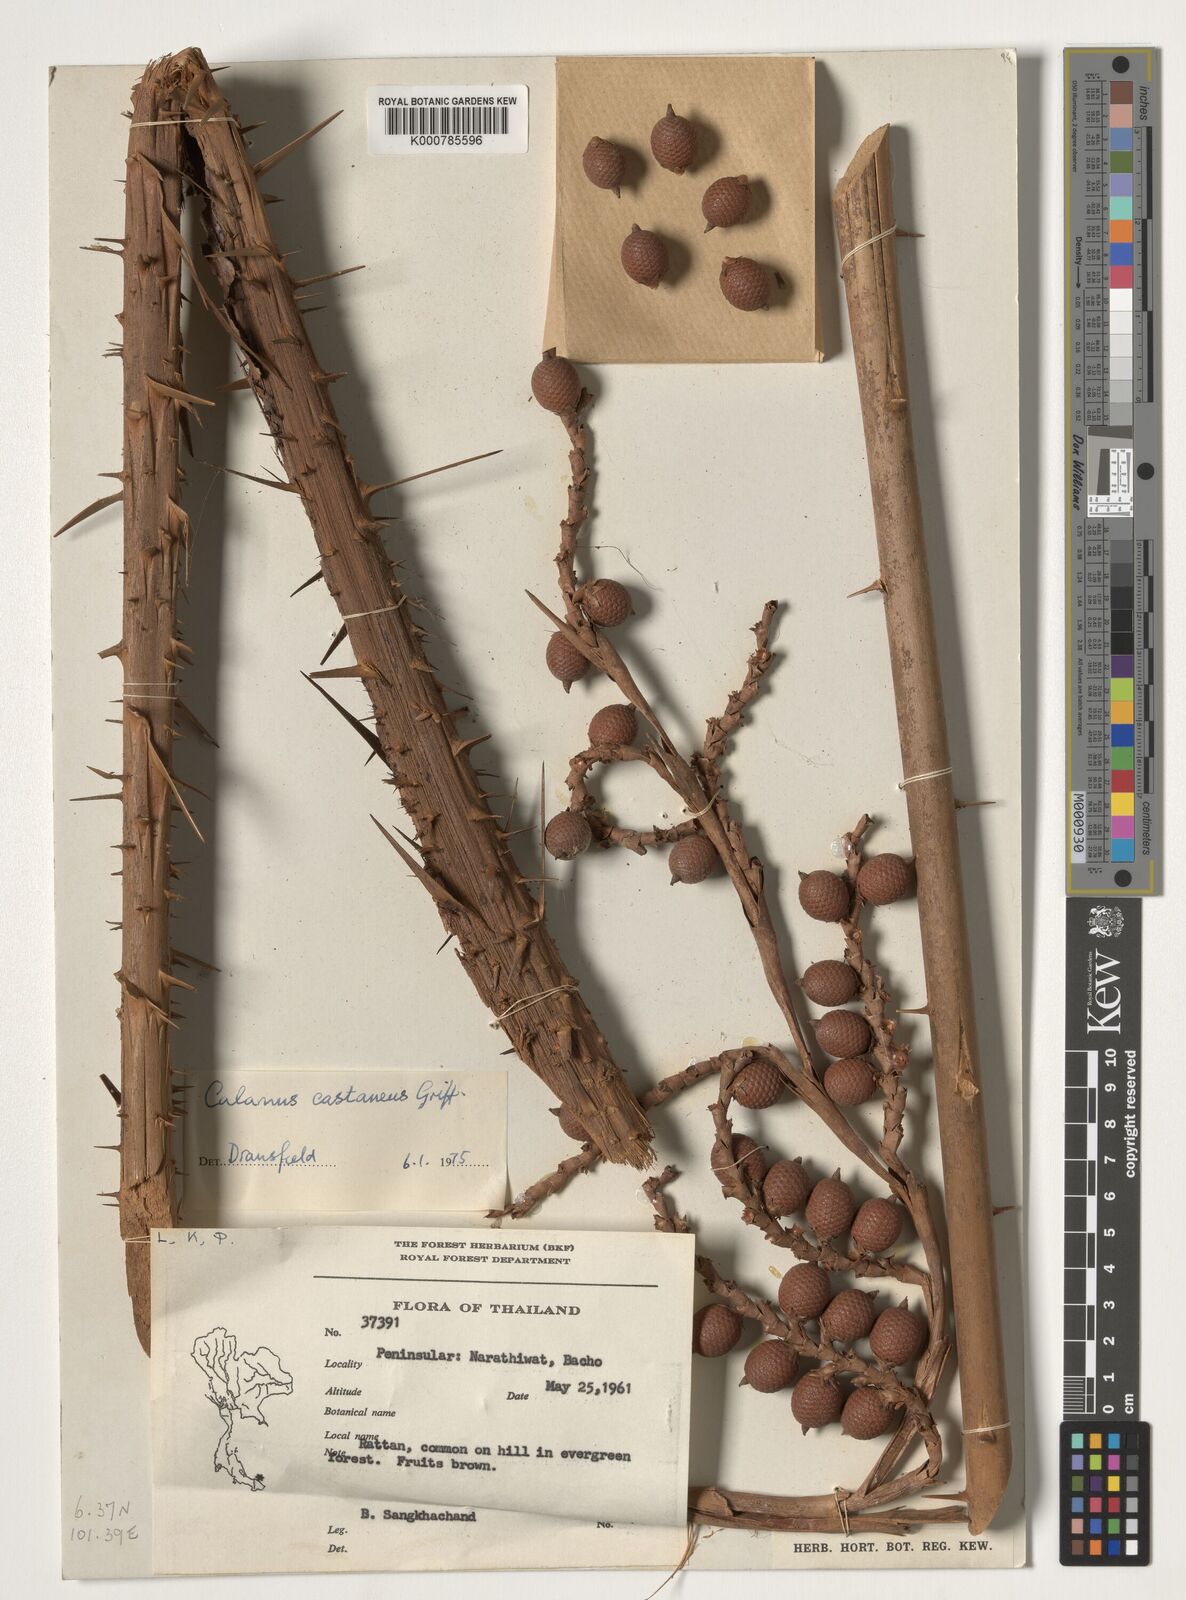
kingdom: Plantae
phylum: Tracheophyta
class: Liliopsida
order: Arecales
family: Arecaceae
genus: Calamus
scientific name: Calamus castaneus
